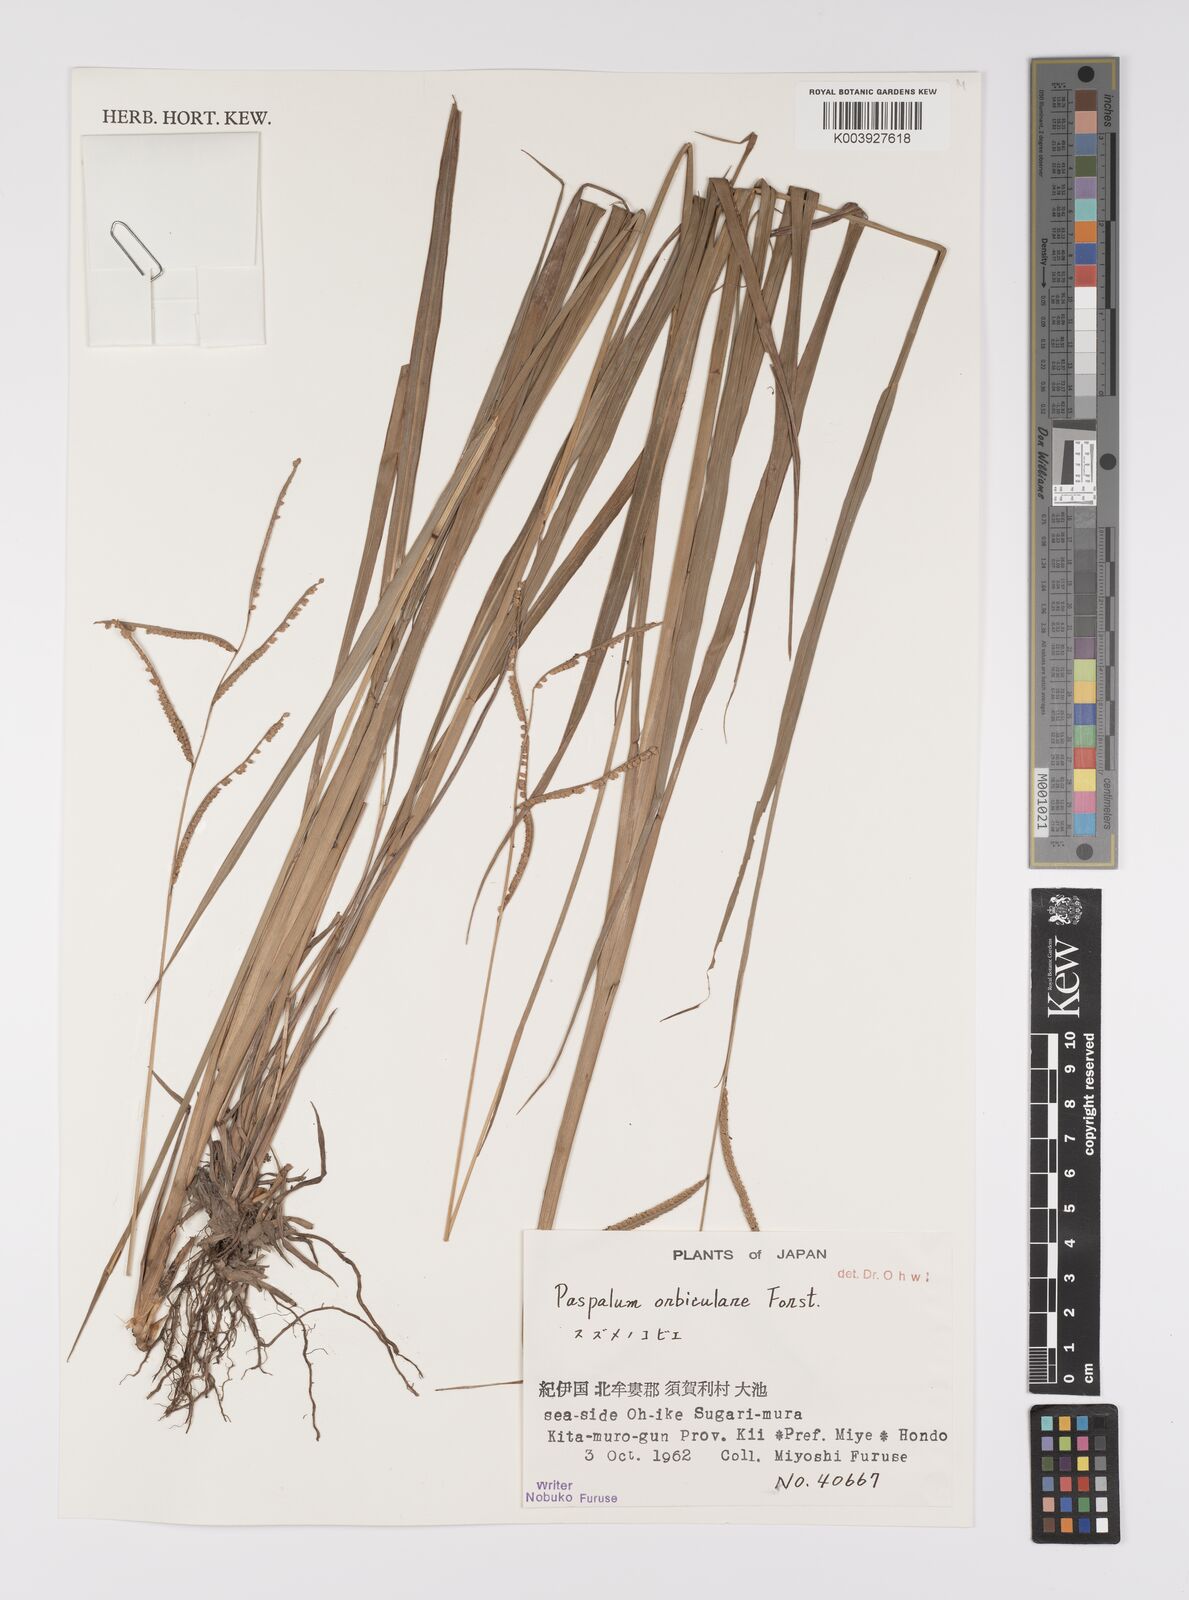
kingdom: Plantae
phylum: Tracheophyta
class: Liliopsida
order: Poales
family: Poaceae
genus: Paspalum
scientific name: Paspalum scrobiculatum
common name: Kodo millet
